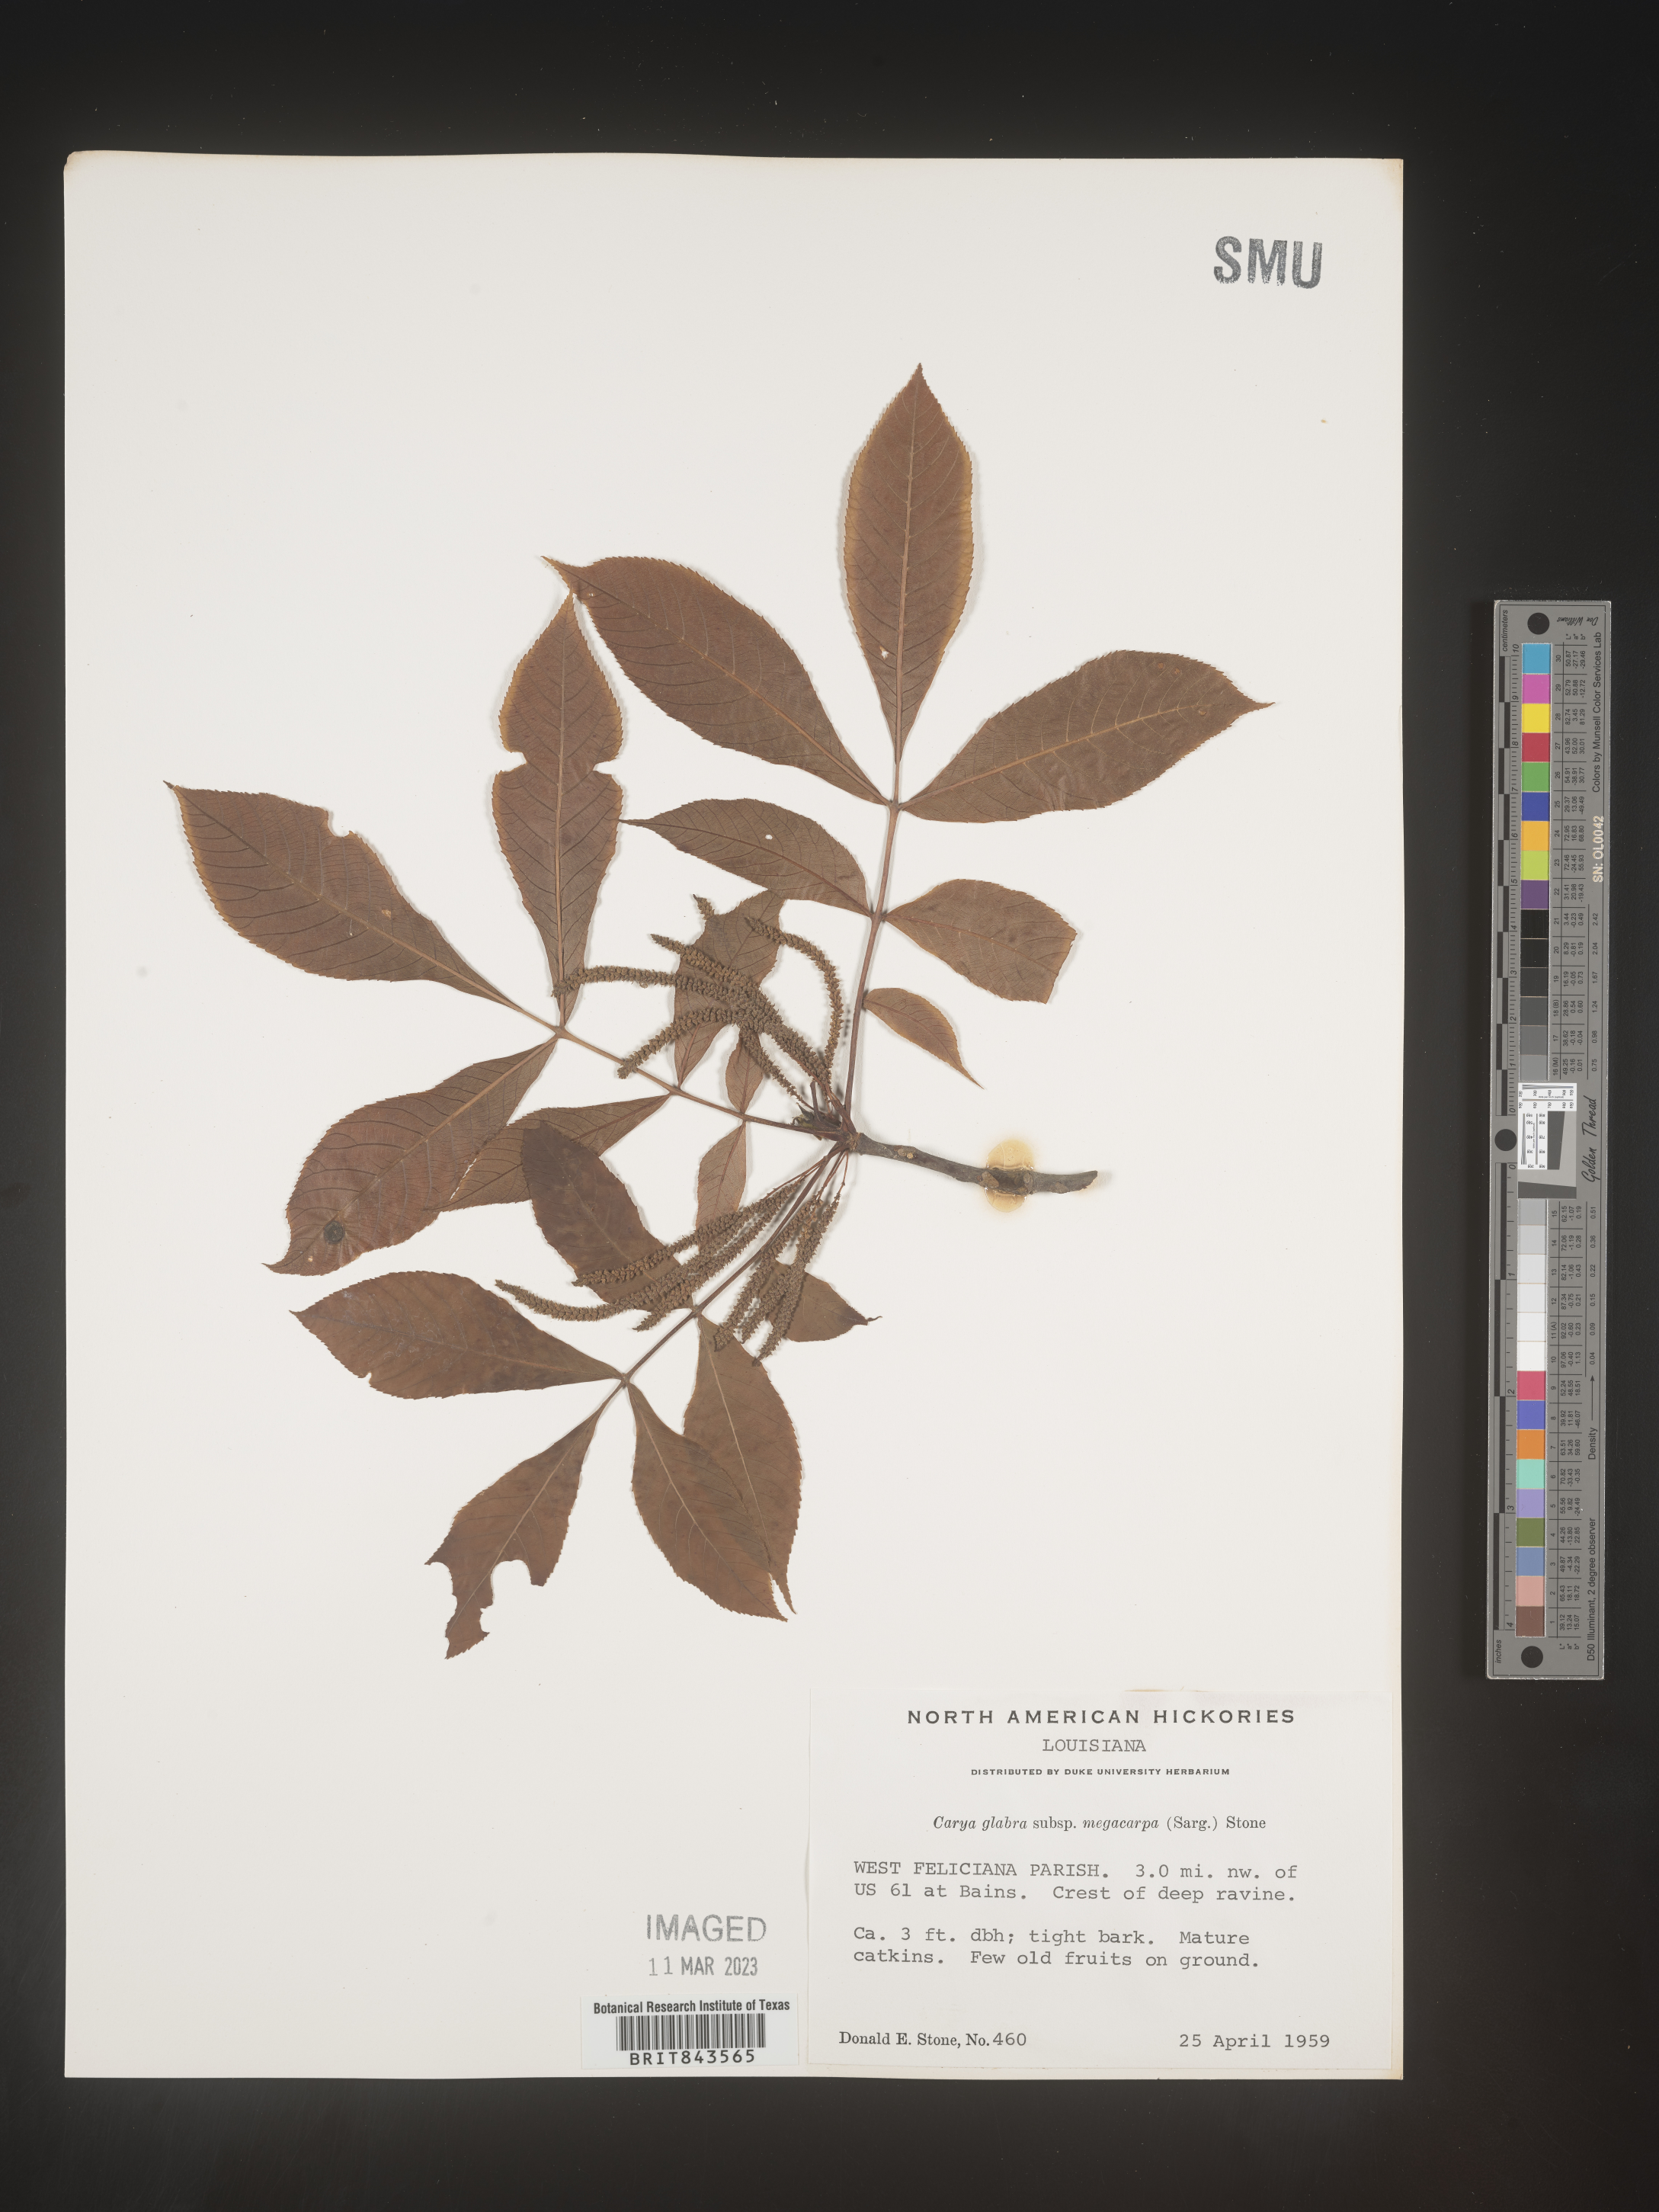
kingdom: Plantae
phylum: Tracheophyta
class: Magnoliopsida
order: Fagales
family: Juglandaceae
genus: Carya
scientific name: Carya glabra
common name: Pignut hickory
